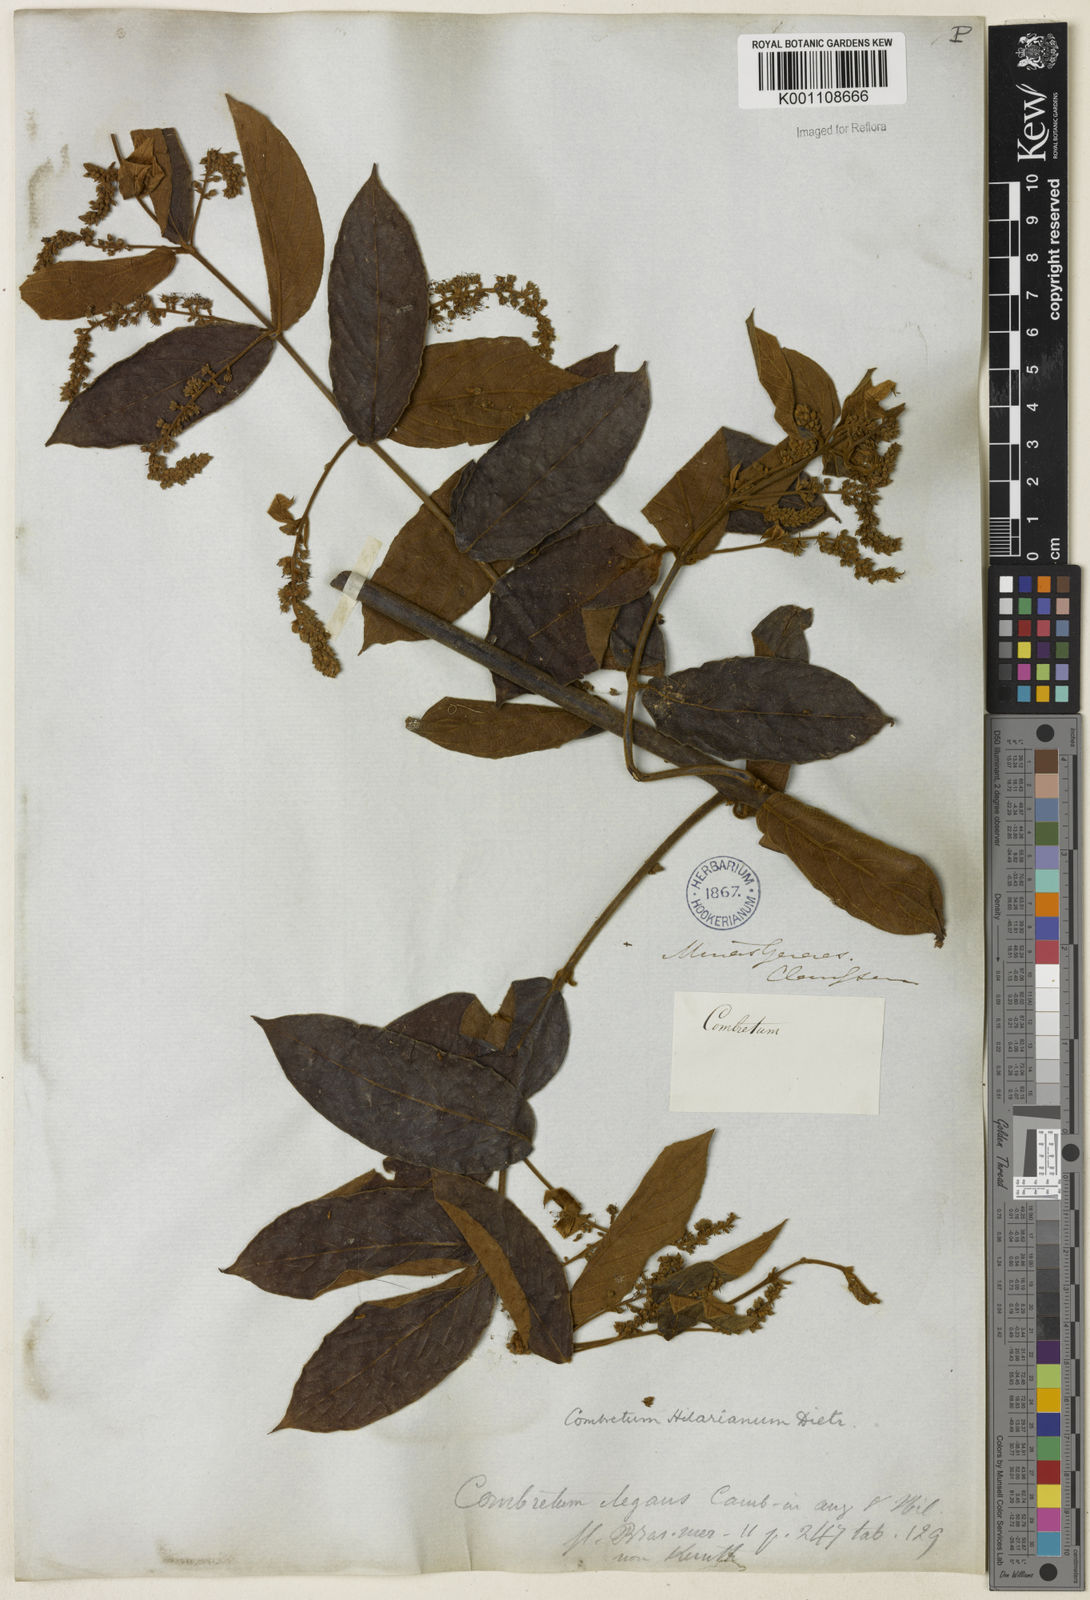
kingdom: Plantae
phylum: Tracheophyta
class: Magnoliopsida
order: Myrtales
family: Combretaceae
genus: Combretum
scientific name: Combretum hilarianum
